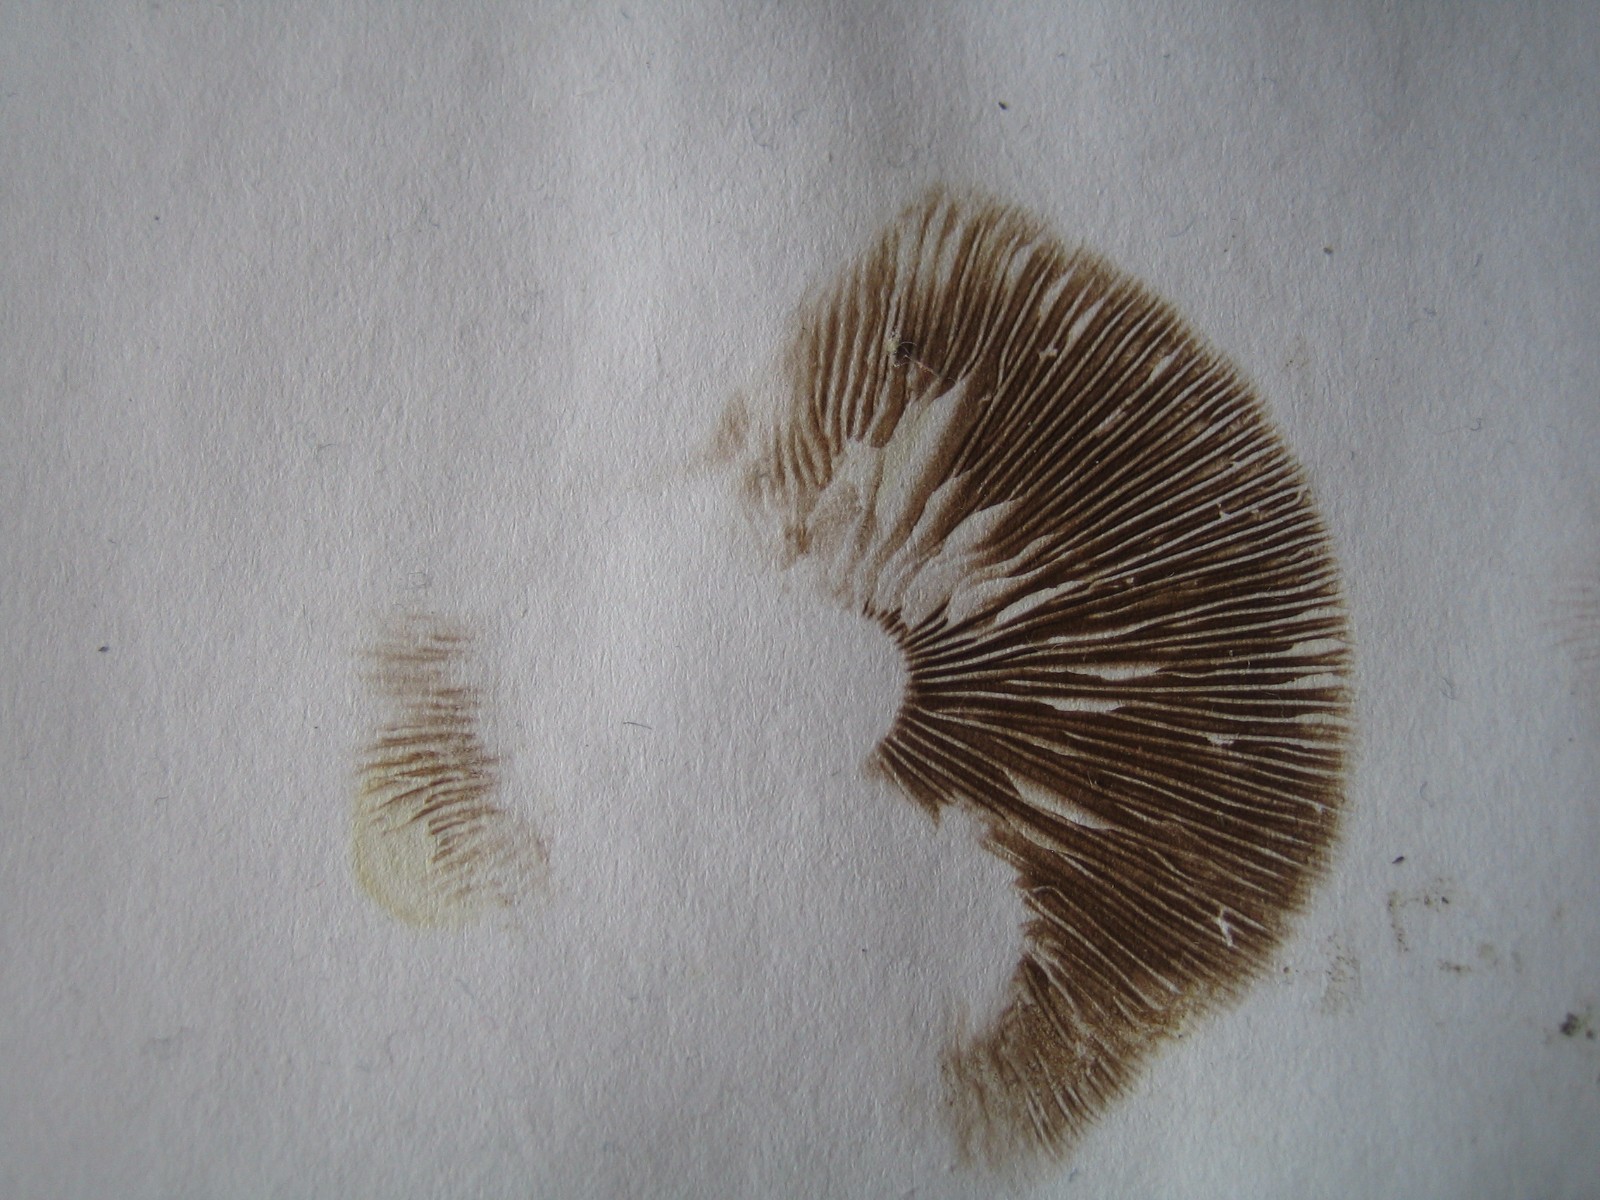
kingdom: Fungi
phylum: Basidiomycota
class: Agaricomycetes
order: Agaricales
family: Strophariaceae
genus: Agrocybe
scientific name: Agrocybe praecox
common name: tidlig agerhat
